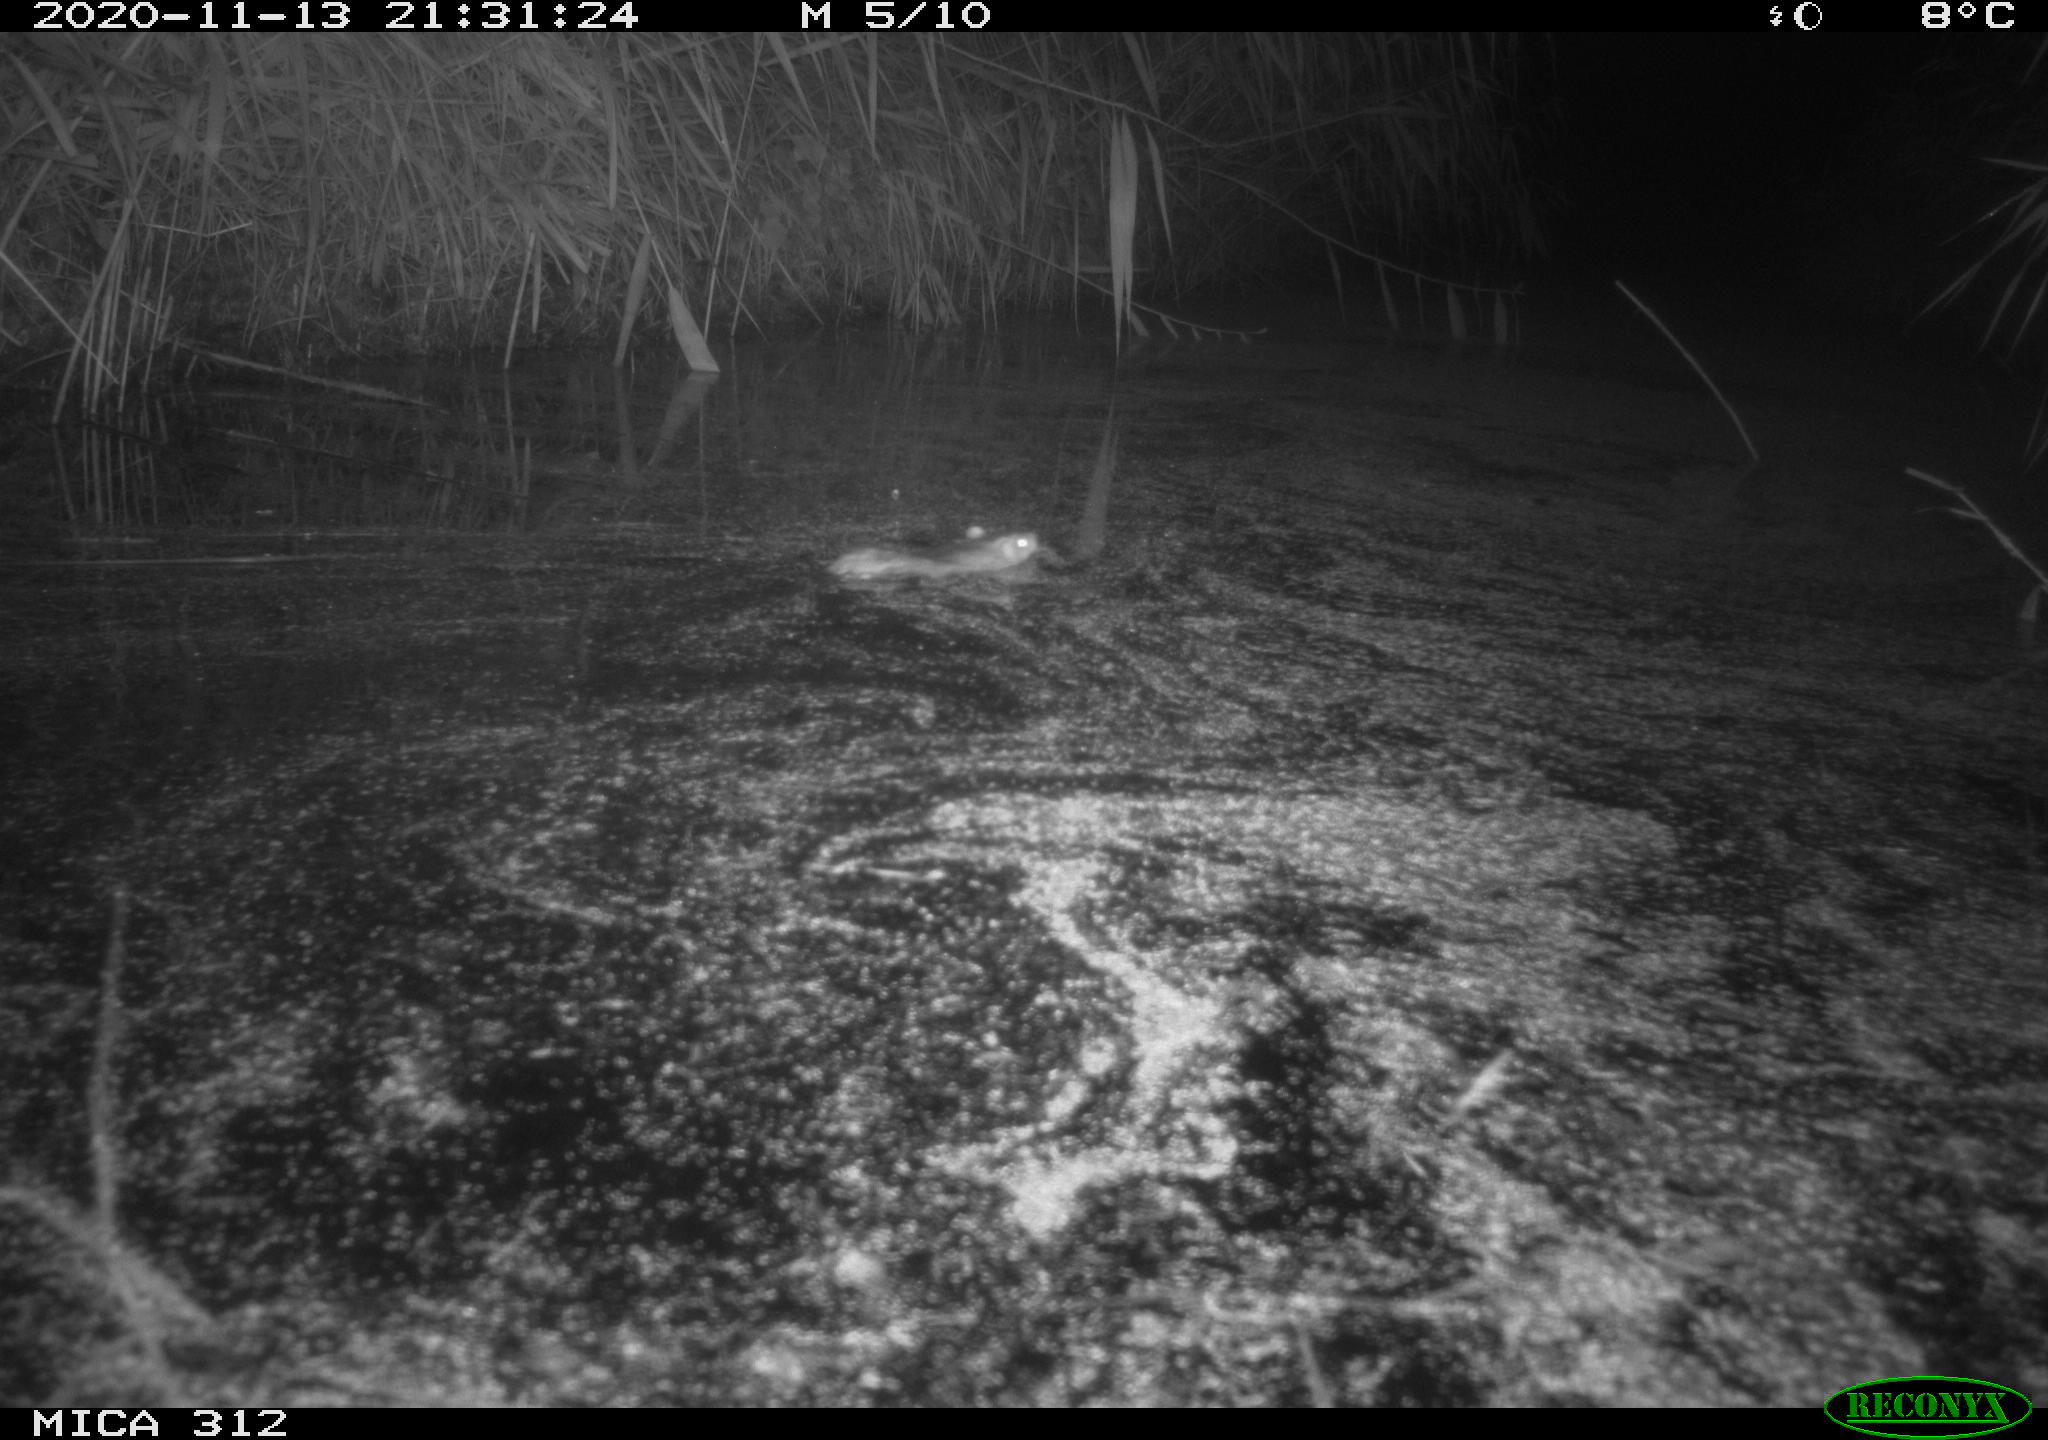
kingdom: Animalia
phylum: Chordata
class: Mammalia
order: Rodentia
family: Muridae
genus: Rattus
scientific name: Rattus norvegicus
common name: Brown rat
